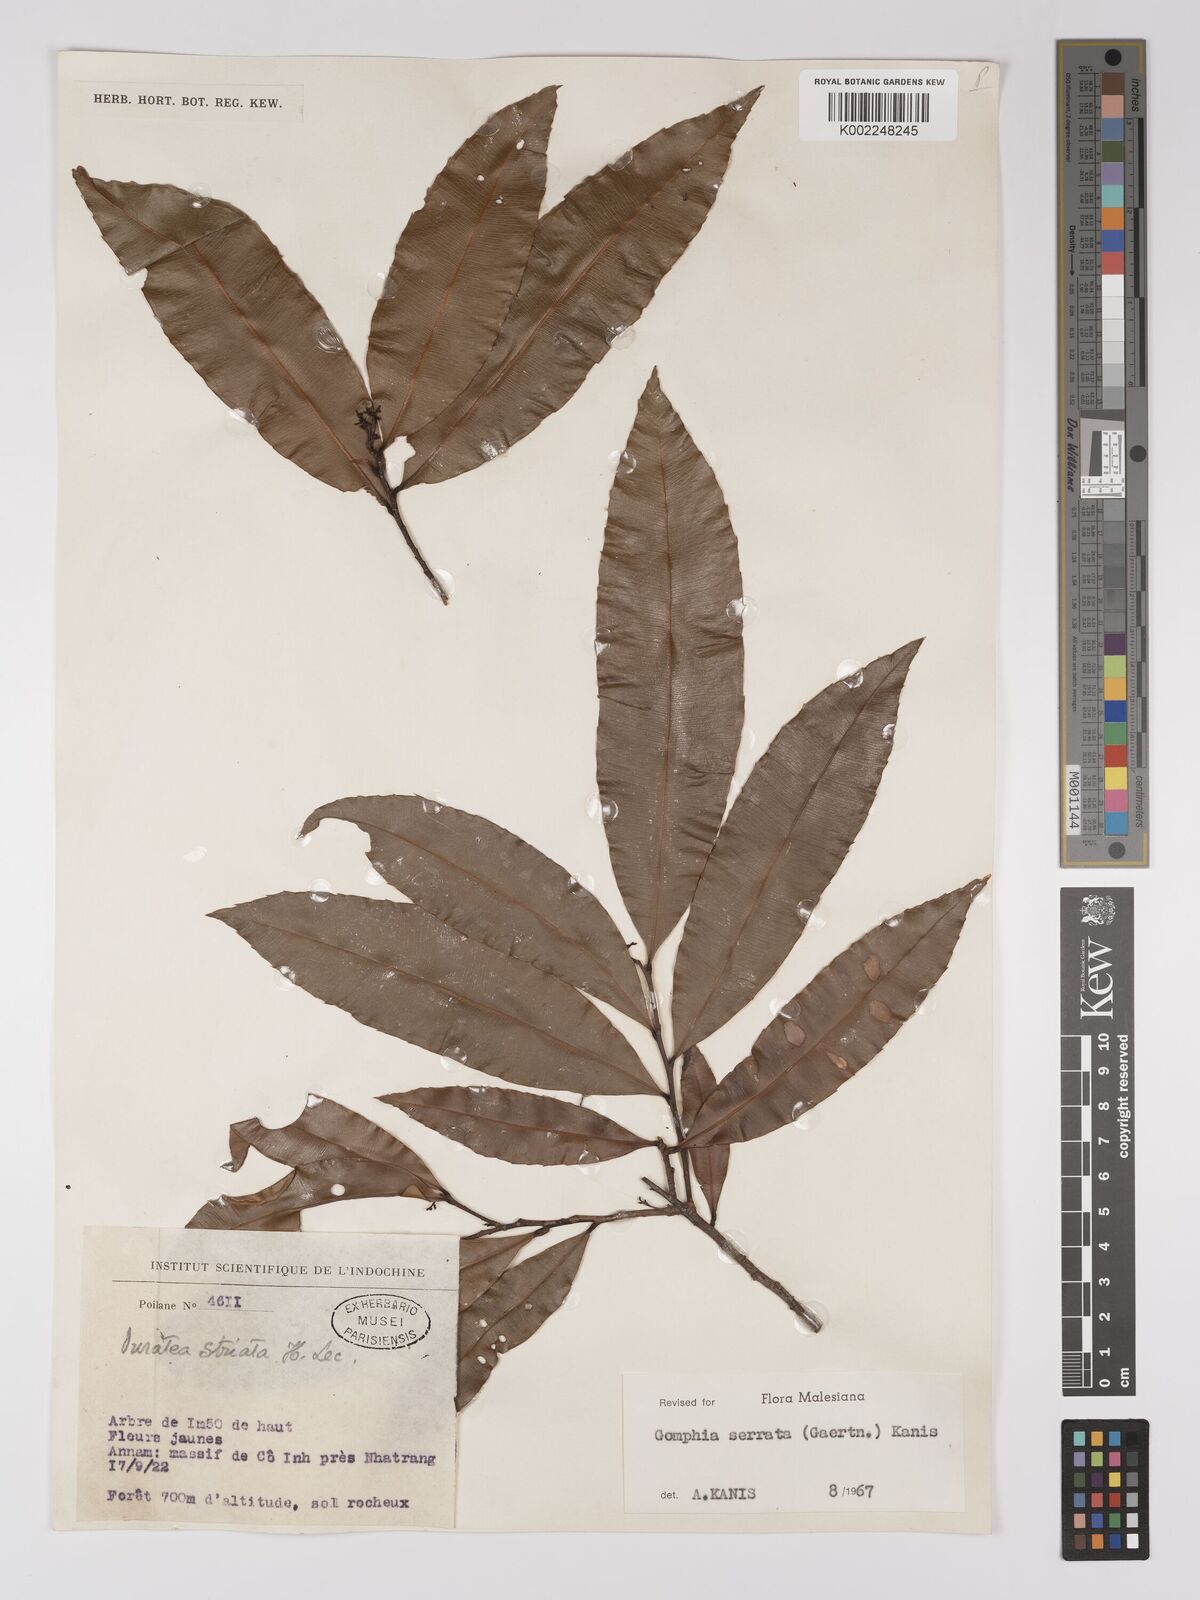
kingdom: Plantae
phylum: Tracheophyta
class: Magnoliopsida
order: Malpighiales
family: Ochnaceae
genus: Gomphia
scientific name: Gomphia serrata
